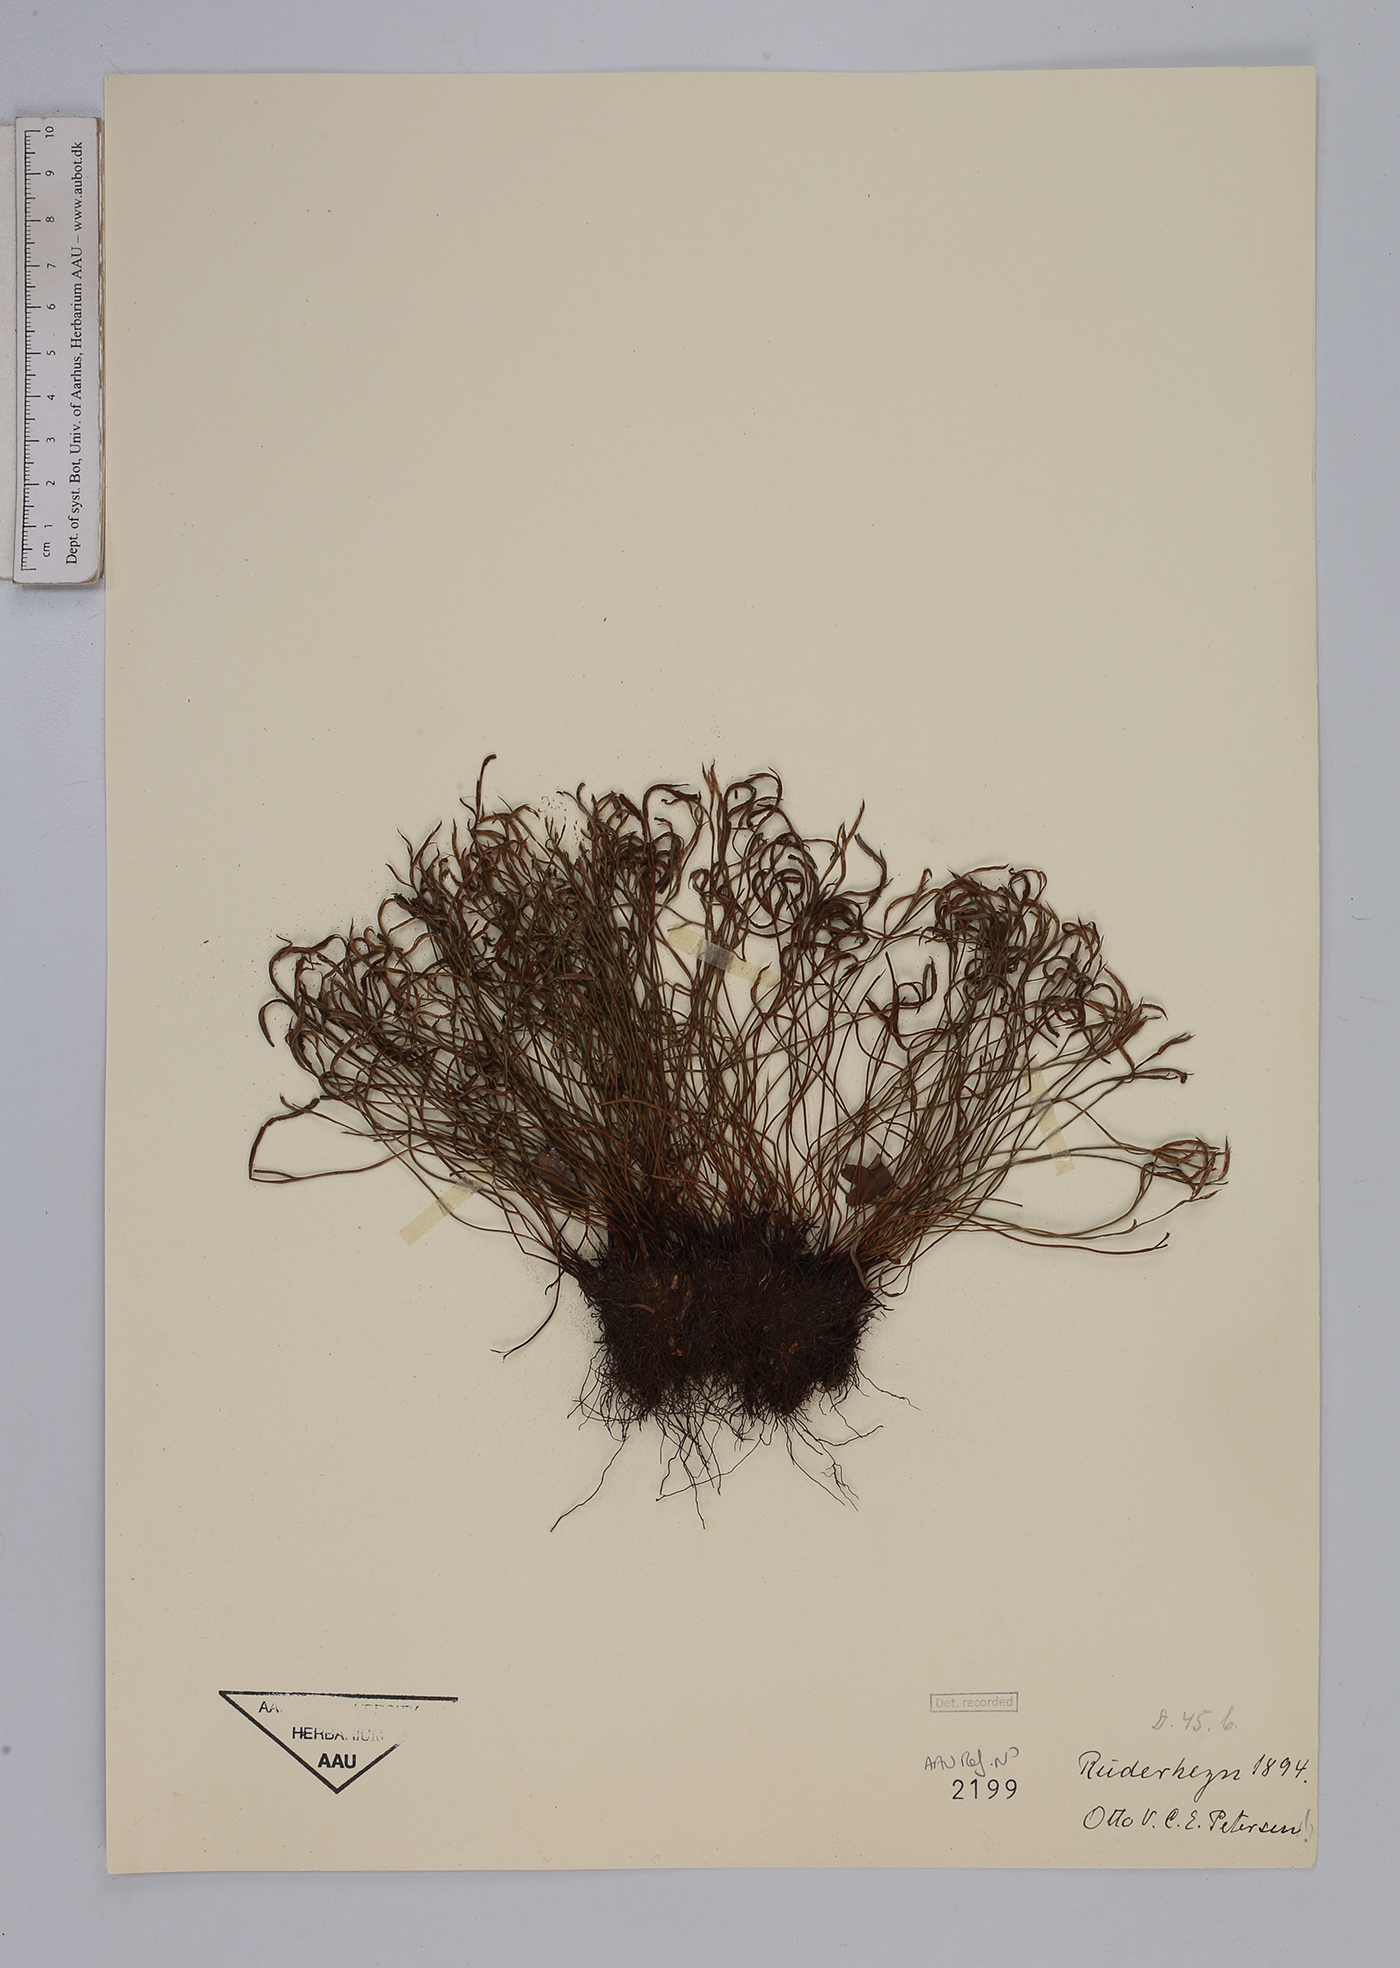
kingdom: Plantae
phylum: Tracheophyta
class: Polypodiopsida
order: Polypodiales
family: Aspleniaceae
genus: Asplenium
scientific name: Asplenium septentrionale
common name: Forked spleenwort
